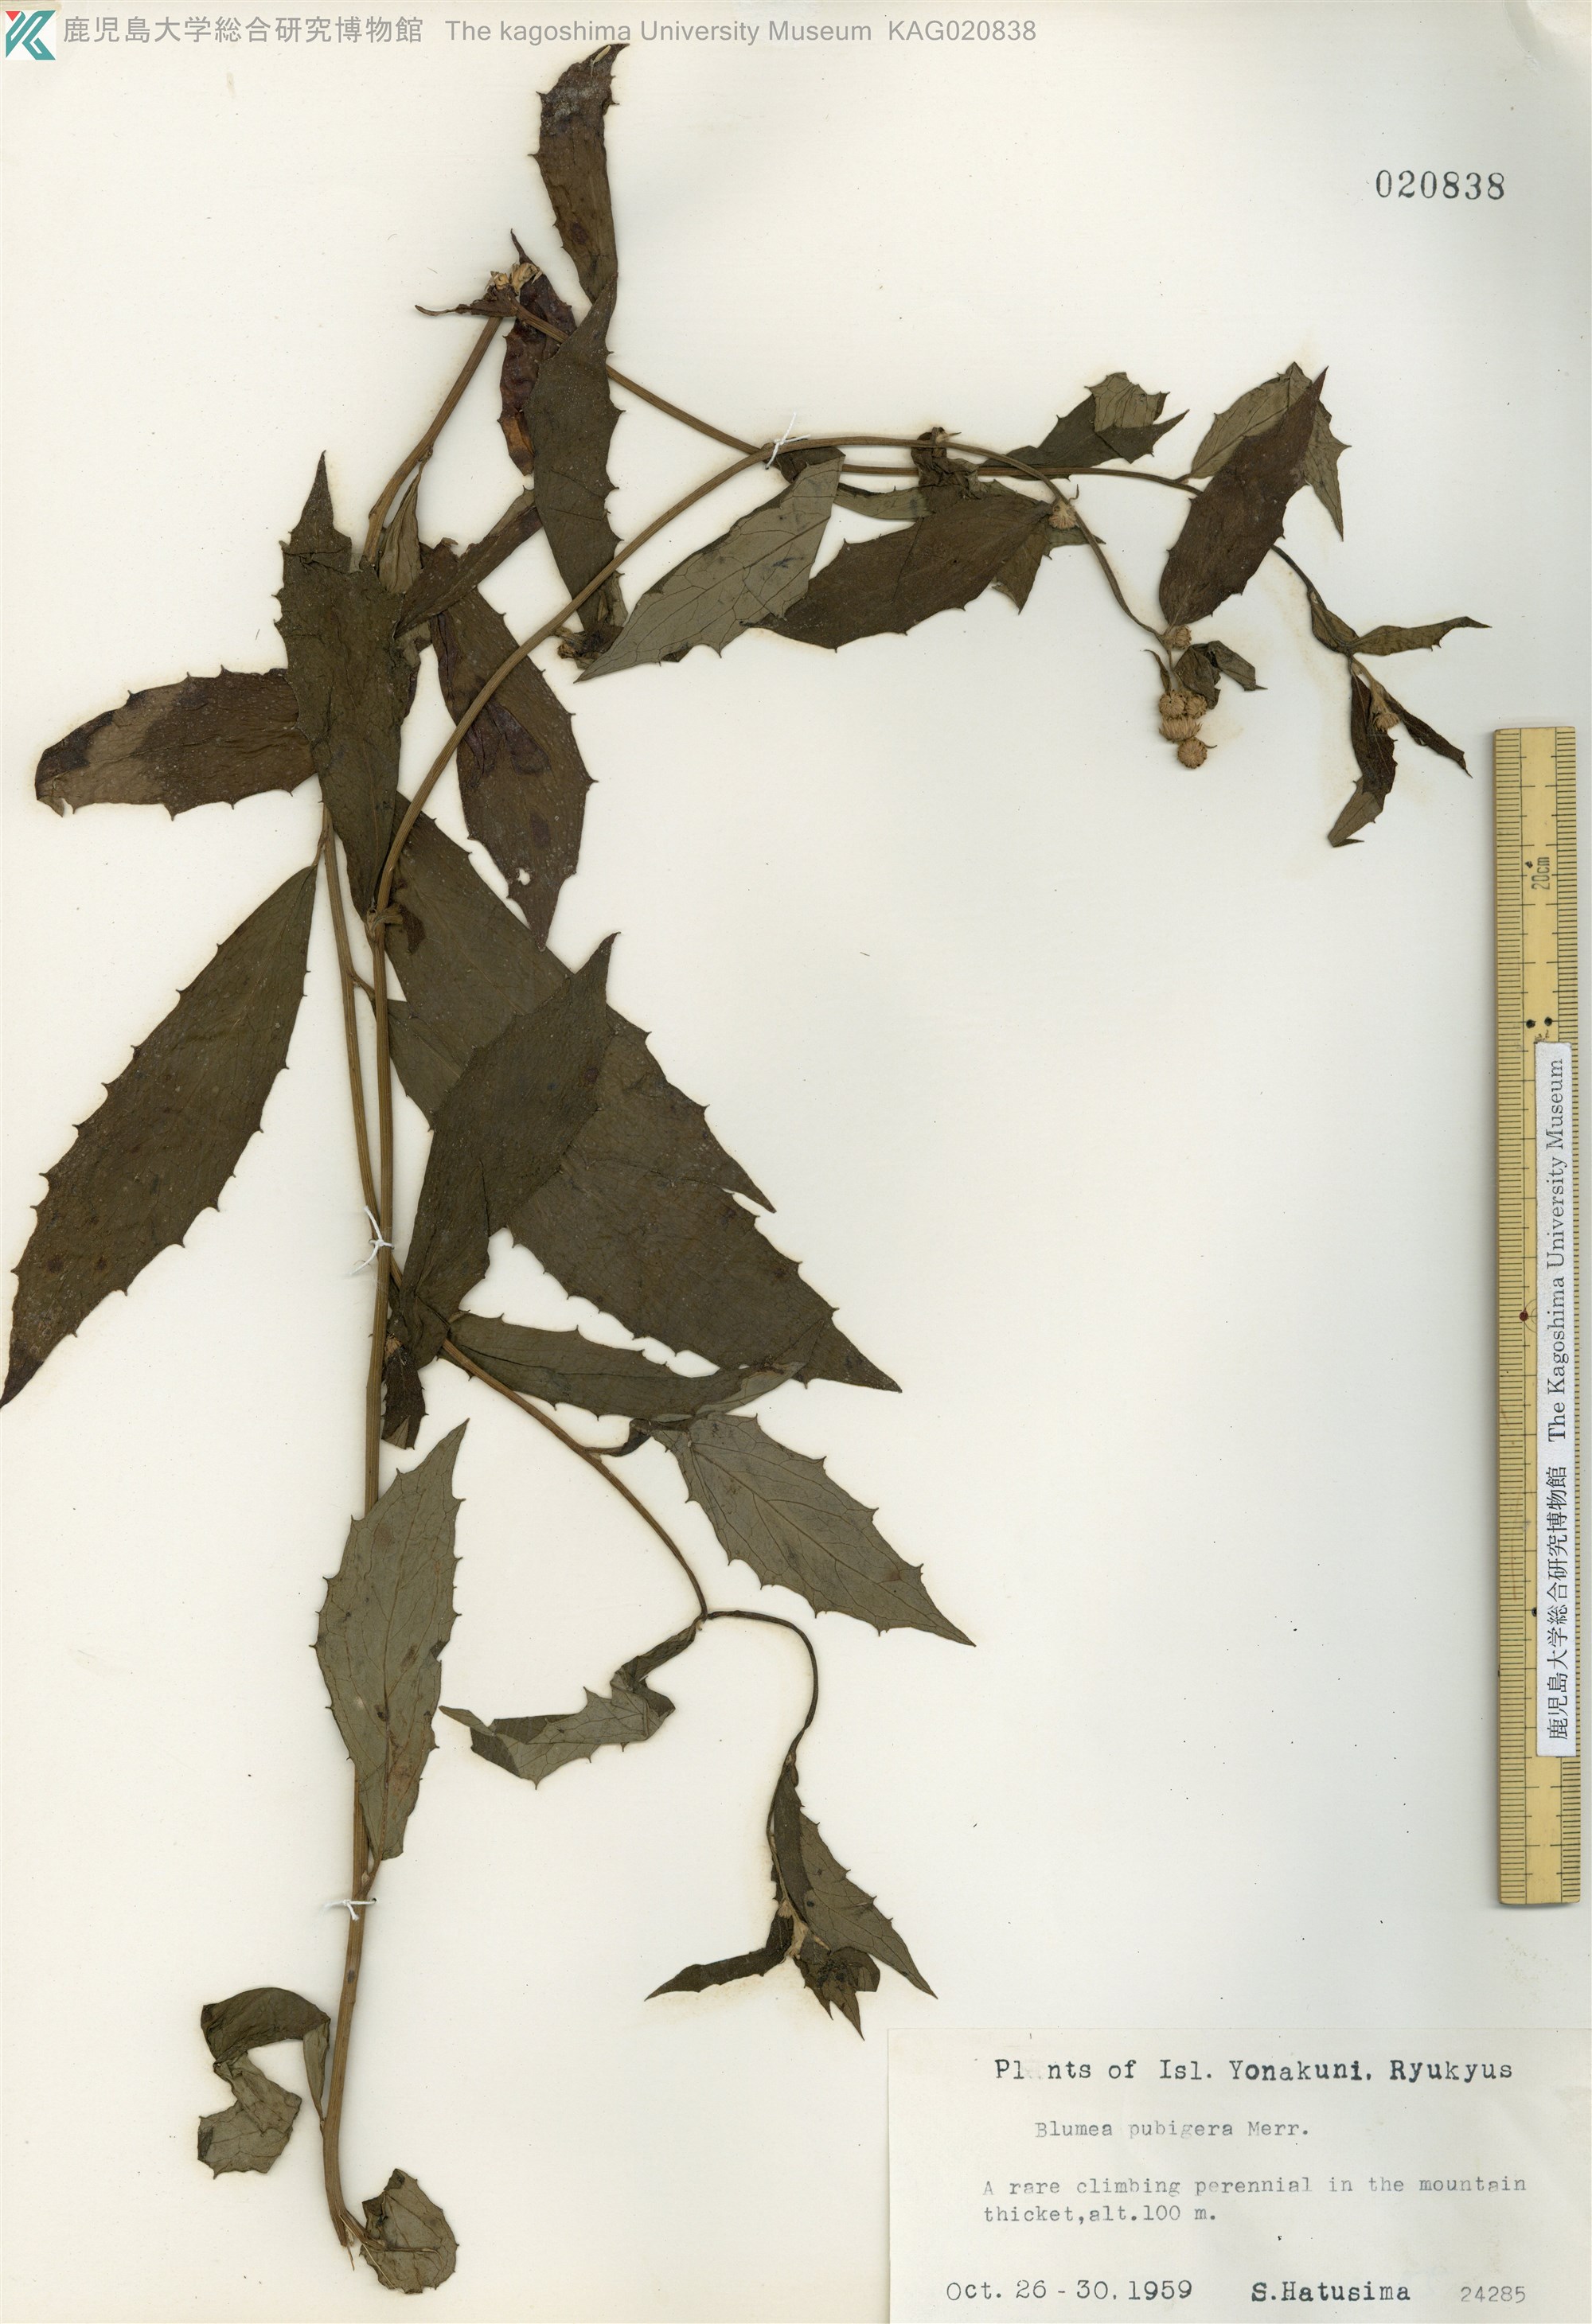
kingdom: Plantae
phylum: Tracheophyta
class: Magnoliopsida
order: Asterales
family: Asteraceae
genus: Blumea
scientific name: Blumea megacephala
